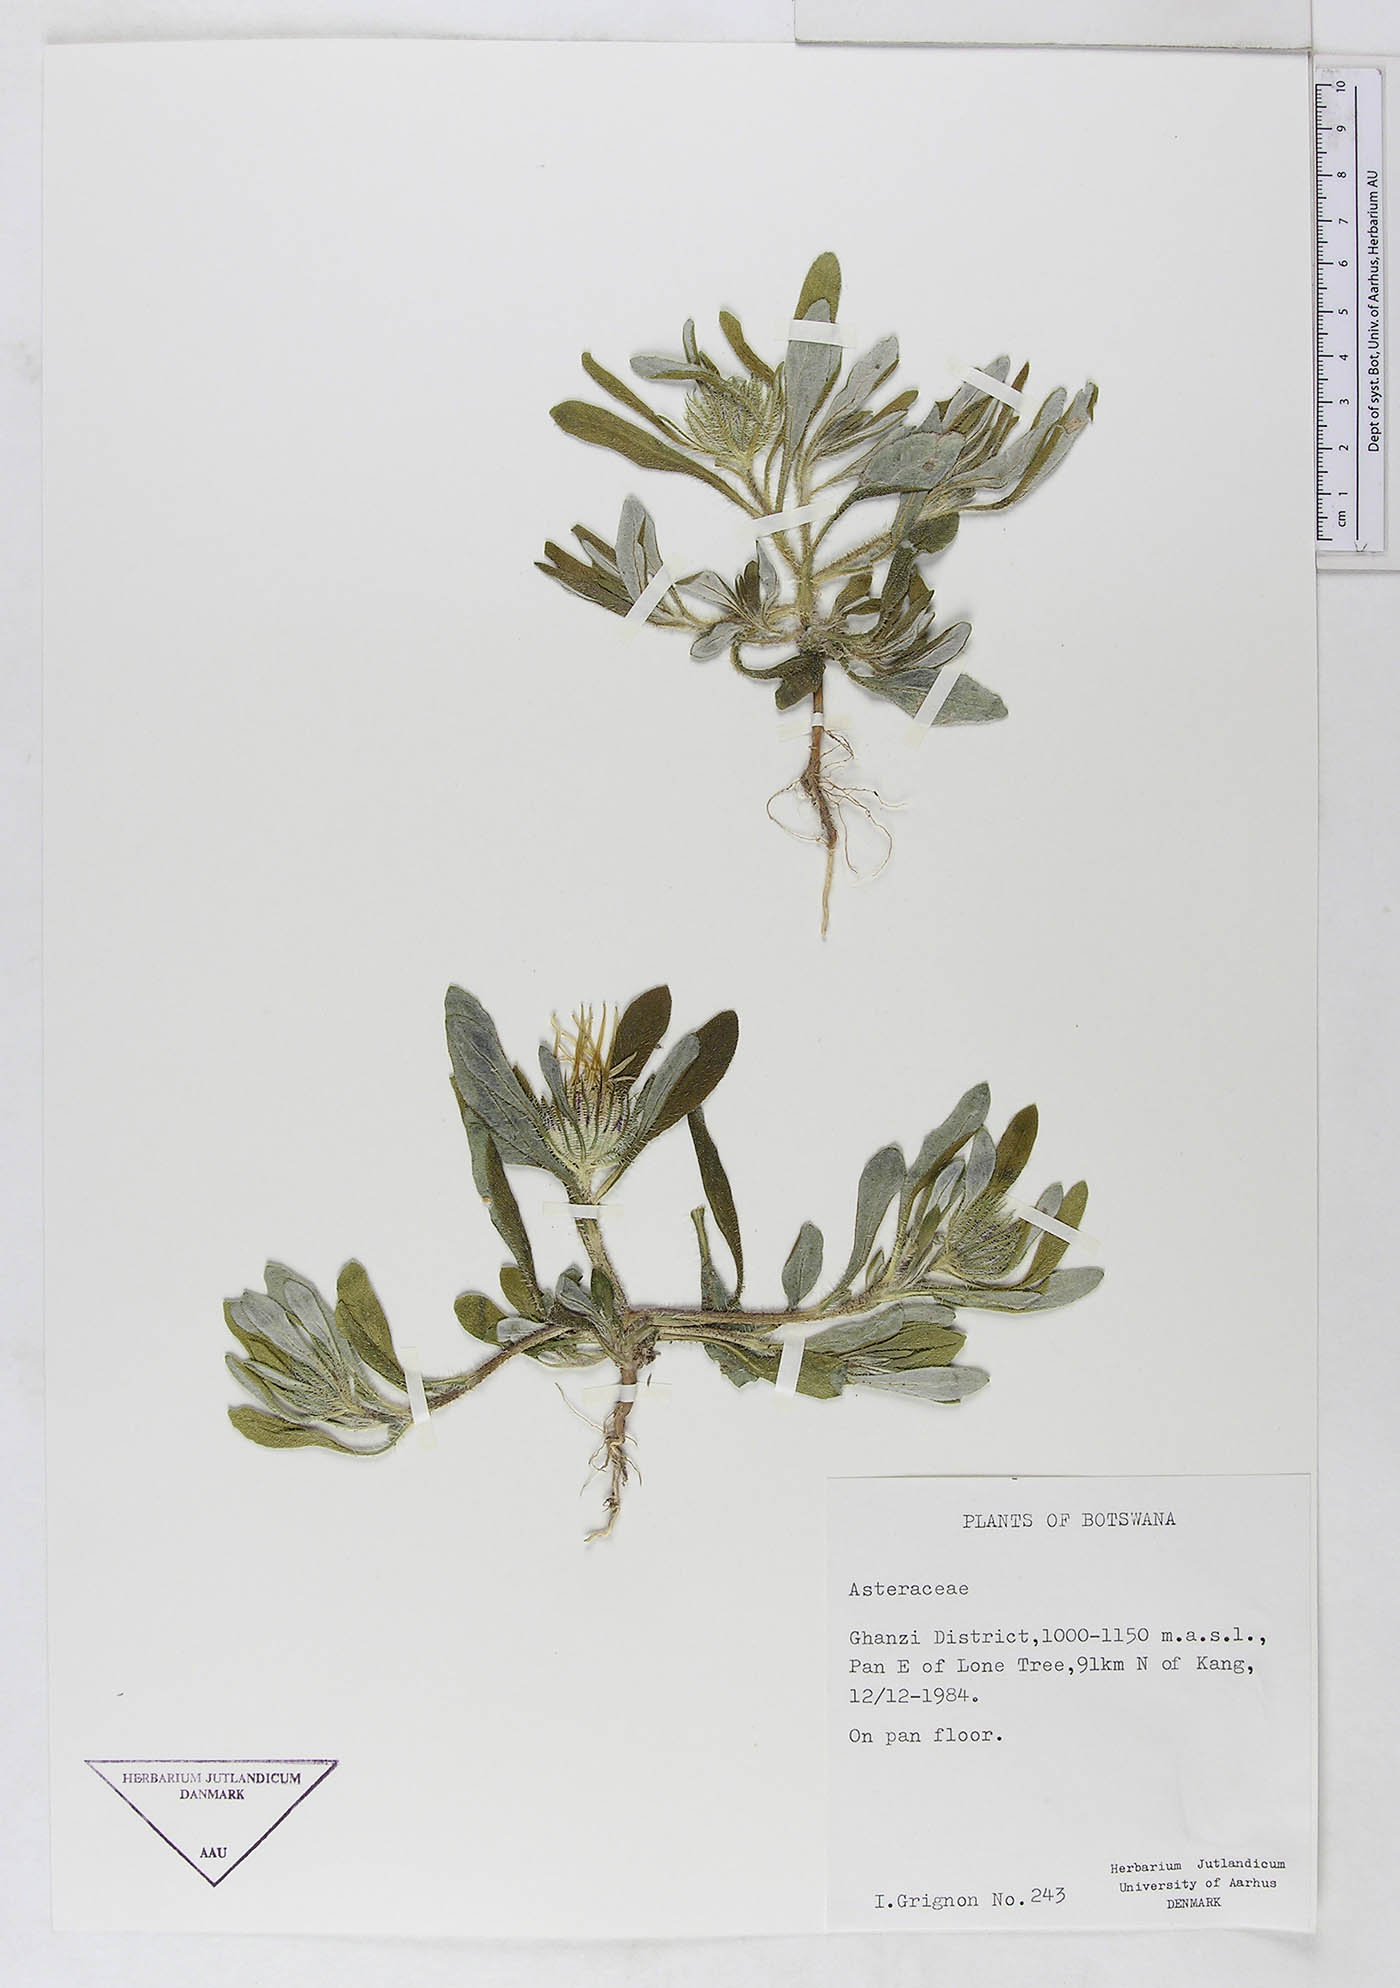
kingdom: Plantae
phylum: Tracheophyta
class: Magnoliopsida
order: Asterales
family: Asteraceae
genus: Gorteria
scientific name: Gorteria corymbosa
